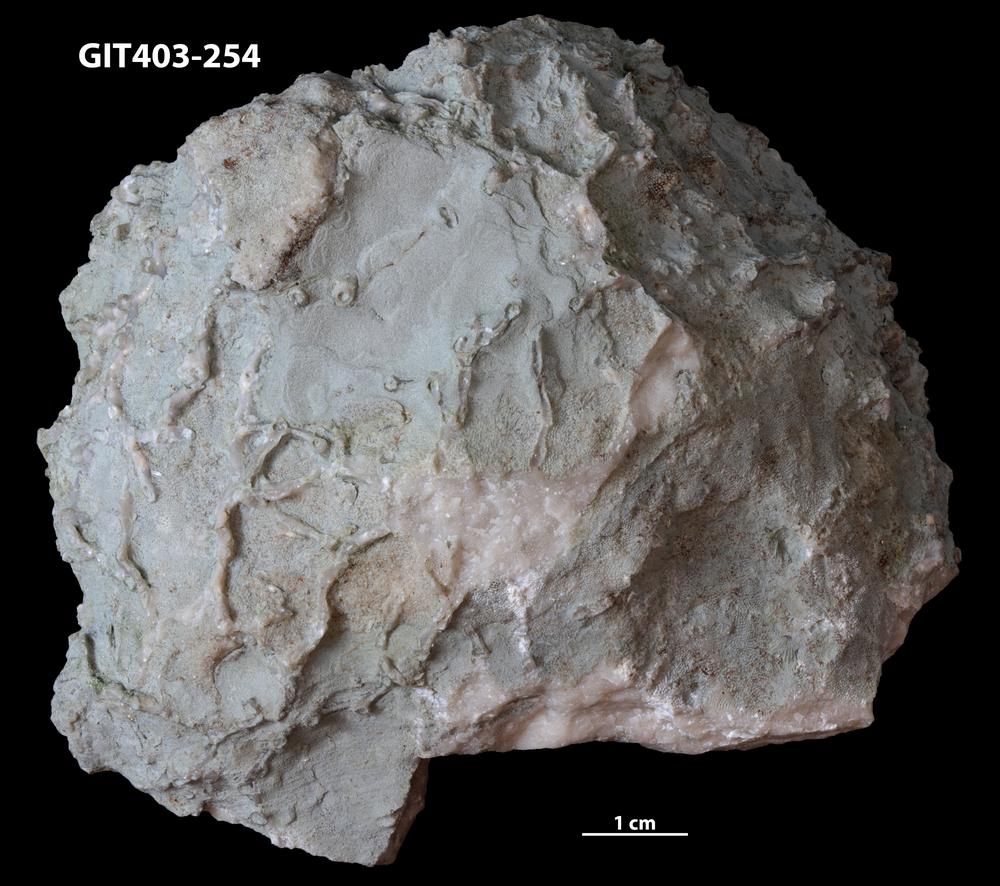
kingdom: Animalia
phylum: Bryozoa
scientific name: Bryozoa
